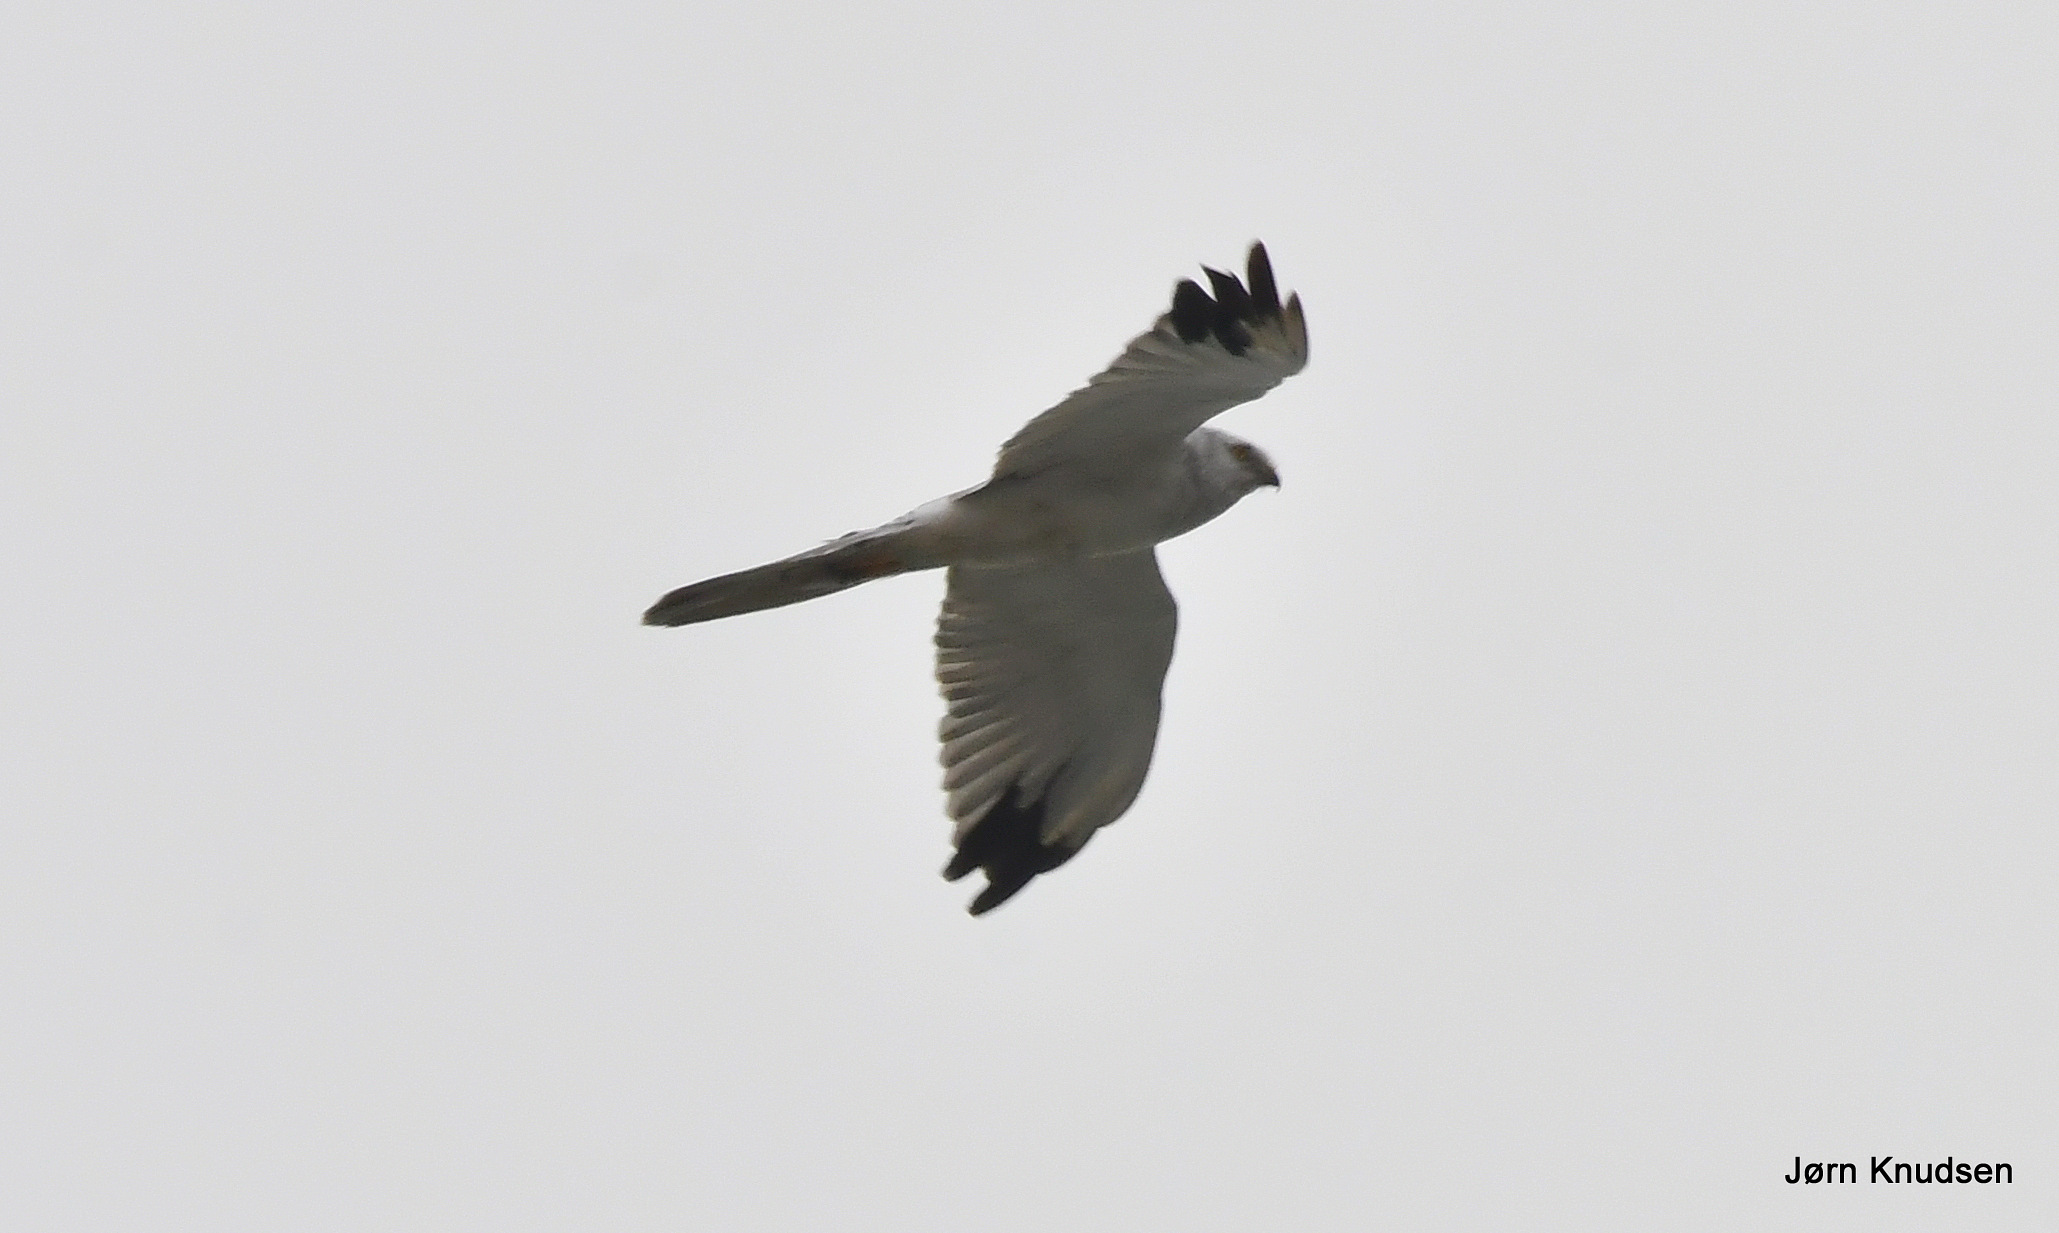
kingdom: Animalia
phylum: Chordata
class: Aves
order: Accipitriformes
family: Accipitridae
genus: Circus
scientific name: Circus macrourus
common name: Steppehøg
